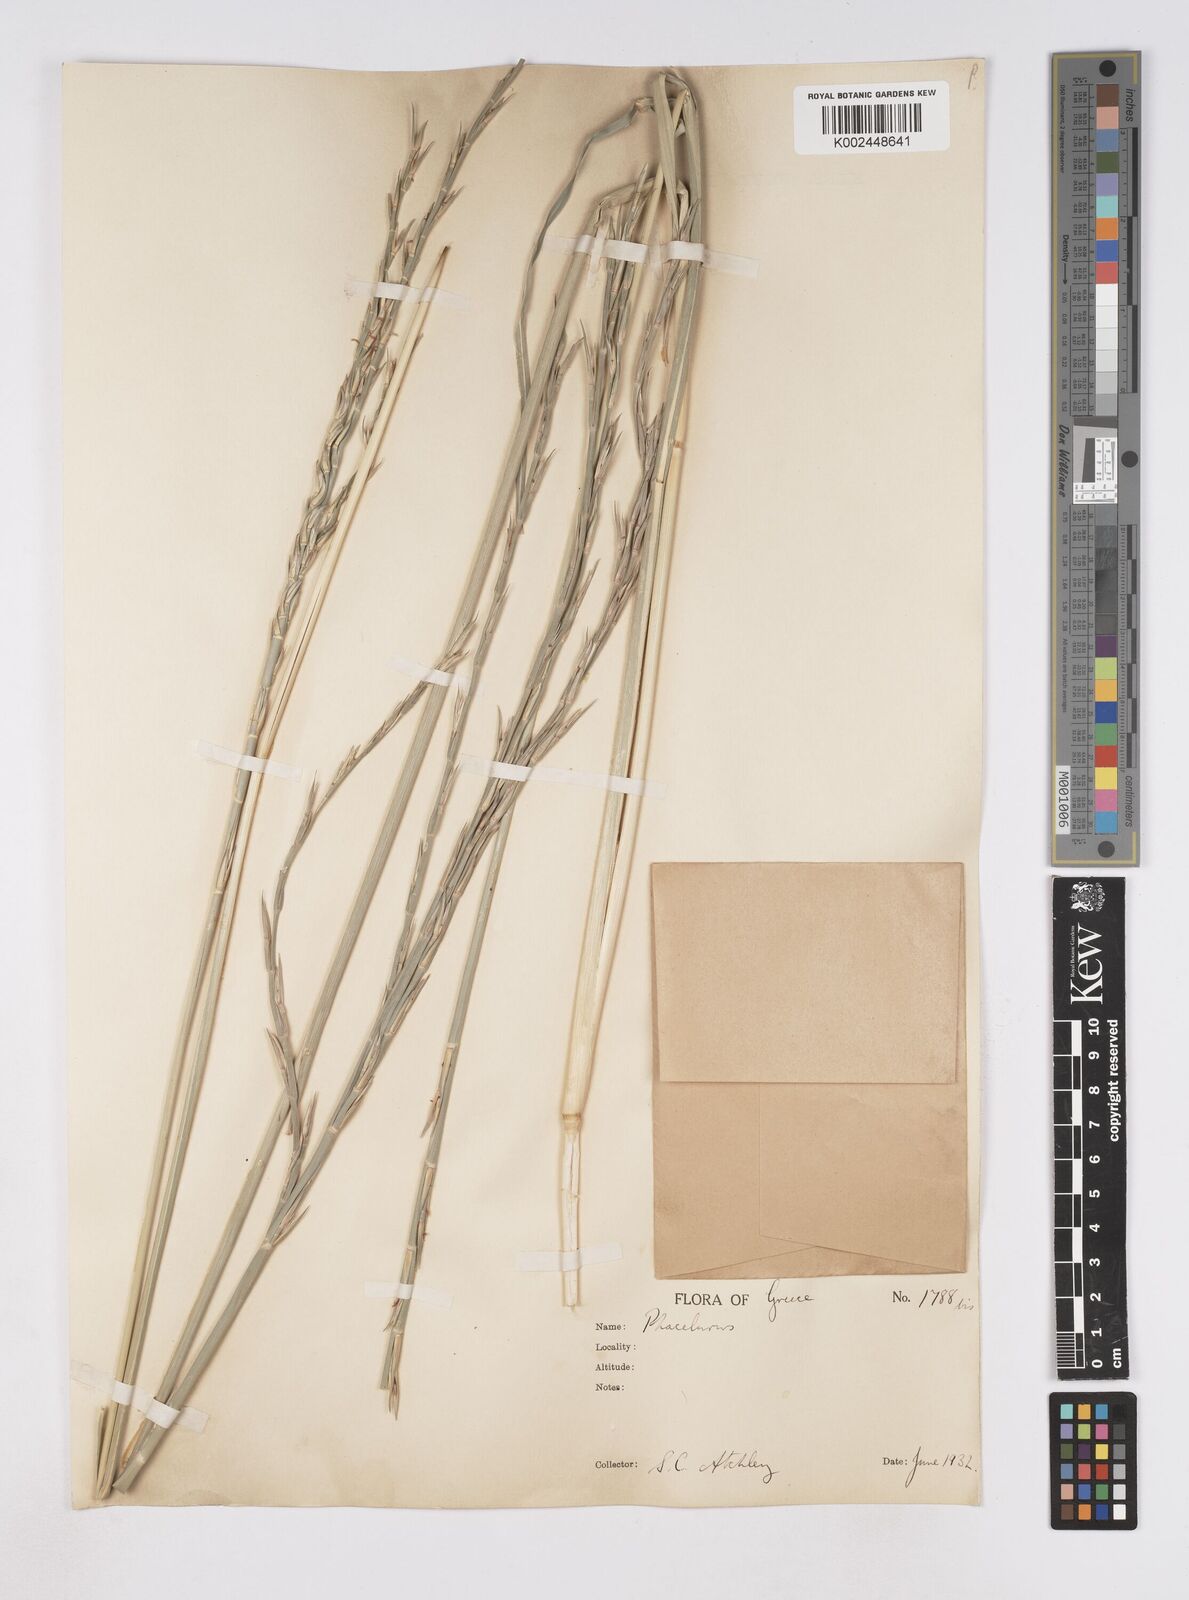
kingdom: Plantae
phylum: Tracheophyta
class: Liliopsida
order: Poales
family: Poaceae
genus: Phacelurus
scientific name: Phacelurus digitatus
